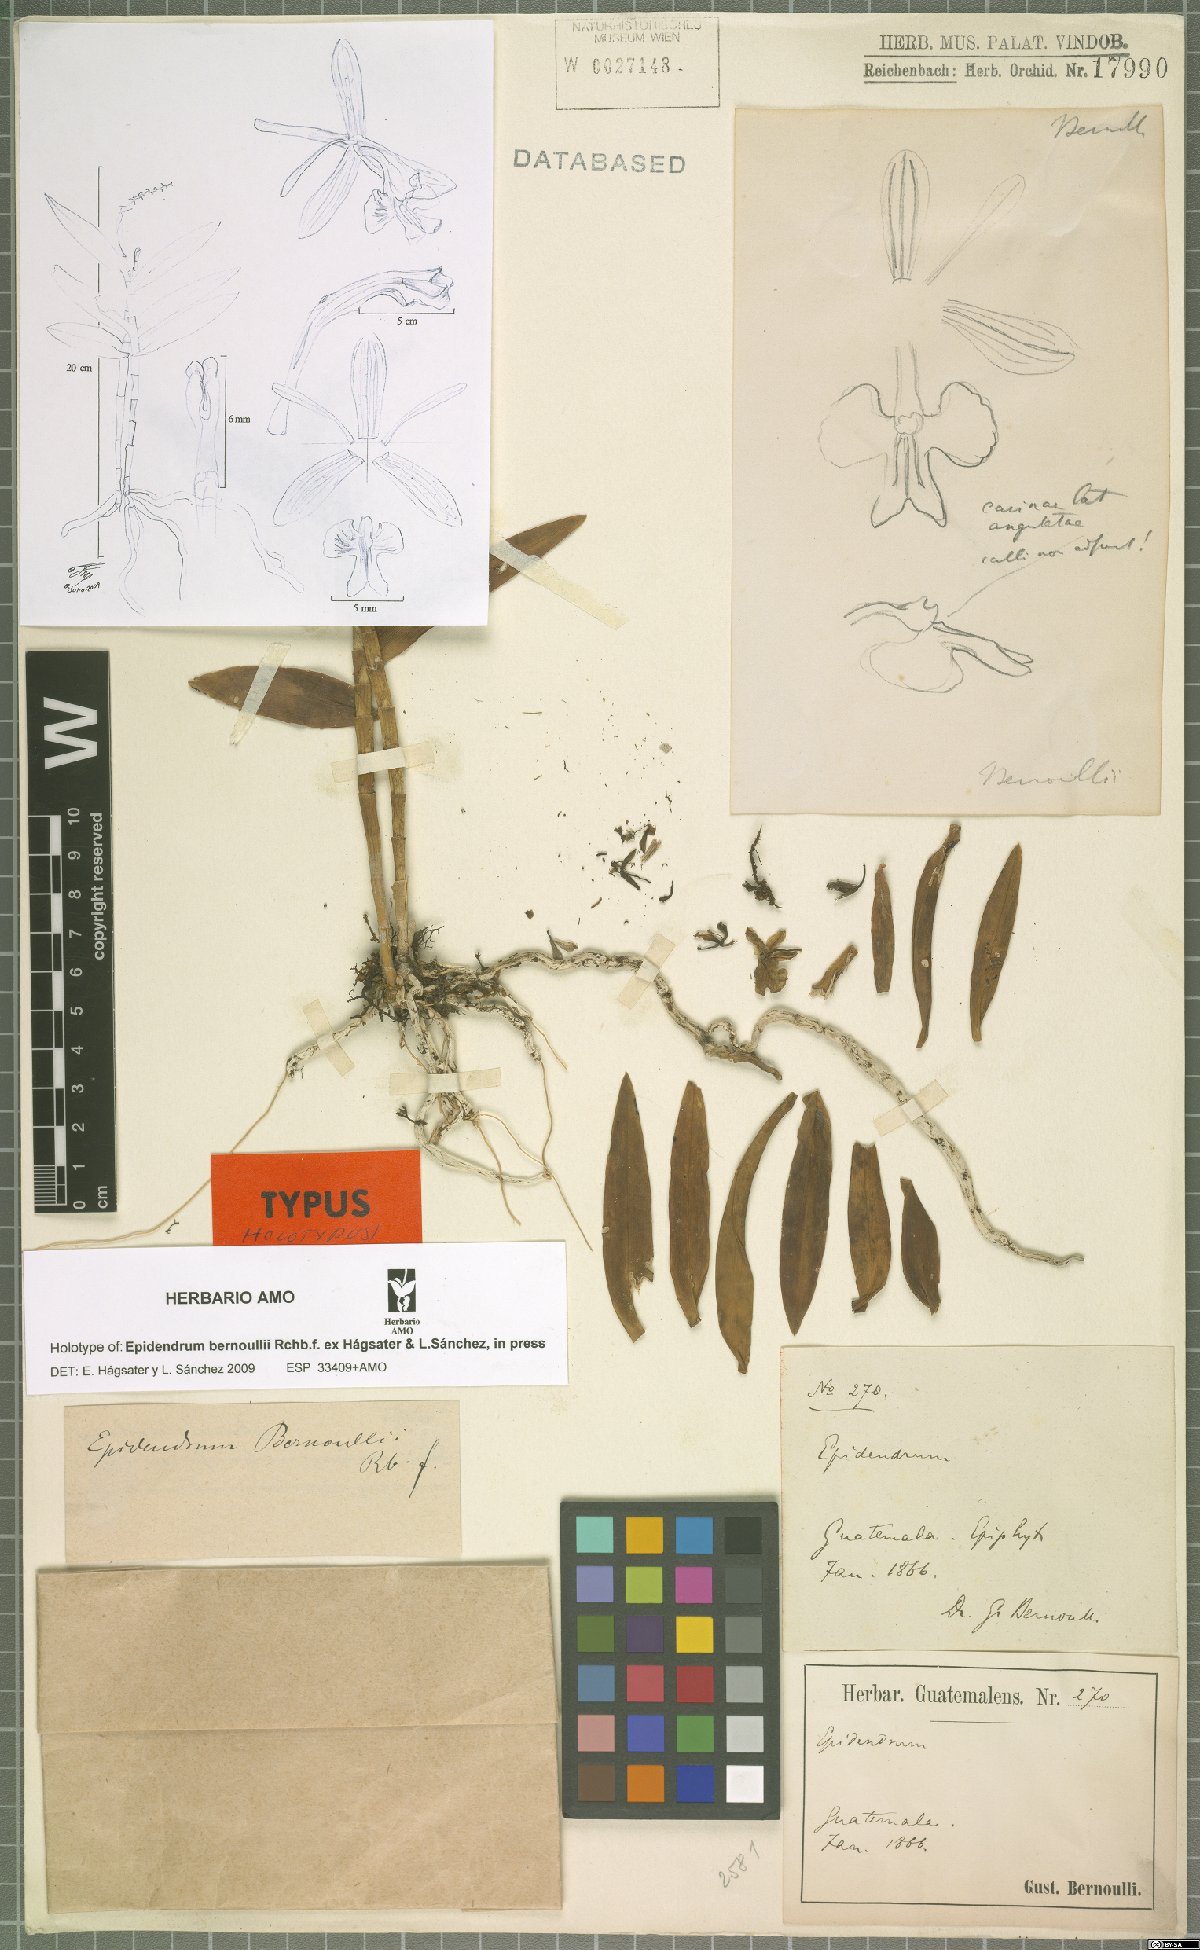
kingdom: Plantae
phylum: Tracheophyta
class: Liliopsida
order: Asparagales
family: Orchidaceae
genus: Epidendrum
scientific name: Epidendrum bernoullii
